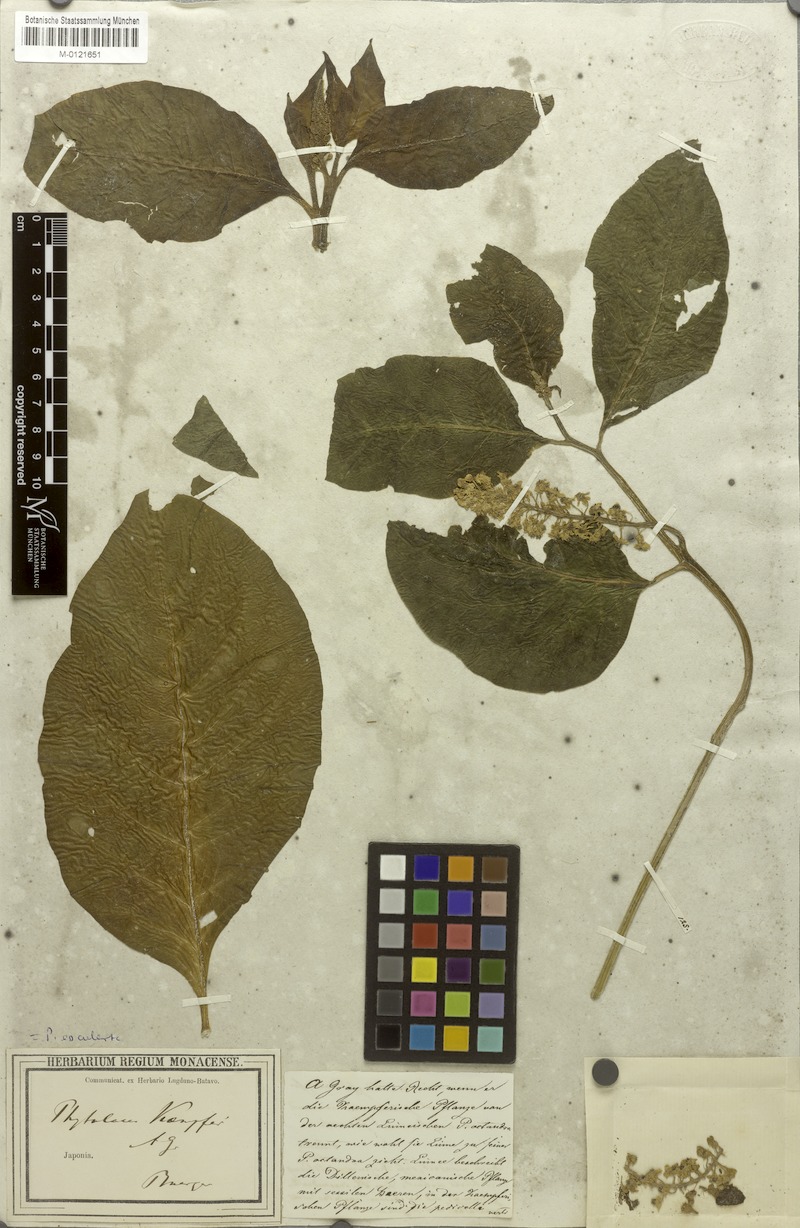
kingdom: Plantae
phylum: Tracheophyta
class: Magnoliopsida
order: Caryophyllales
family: Phytolaccaceae
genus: Phytolacca
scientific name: Phytolacca acinosa
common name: Indian pokeweed
